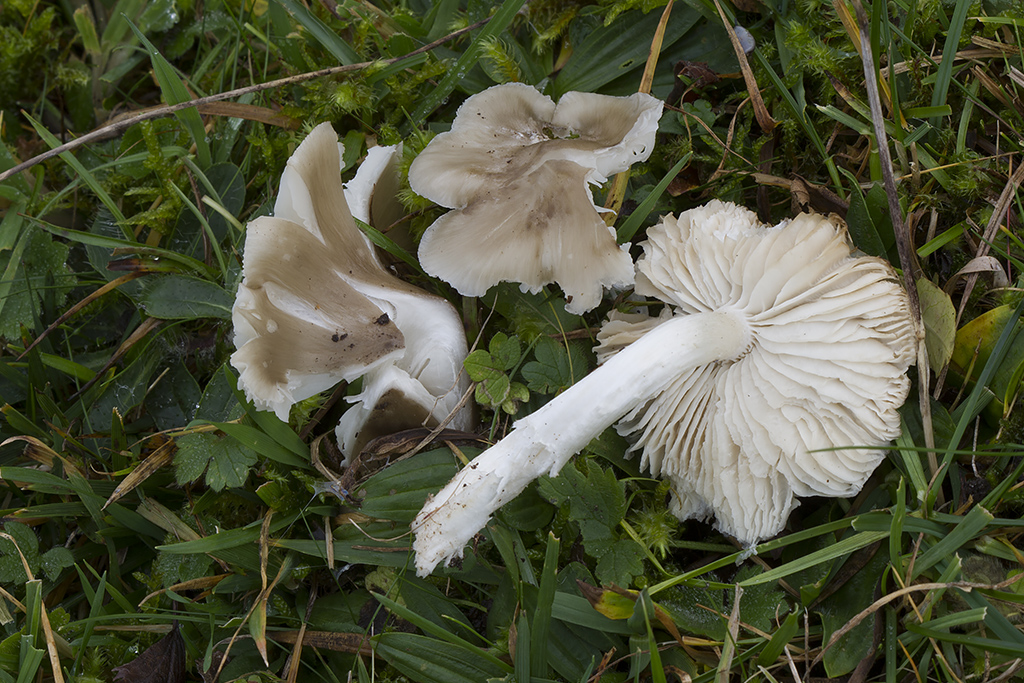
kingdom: Fungi
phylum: Basidiomycota
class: Agaricomycetes
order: Agaricales
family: Hygrophoraceae
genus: Cuphophyllus
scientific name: Cuphophyllus fornicatus
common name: gråbrun vokshat
